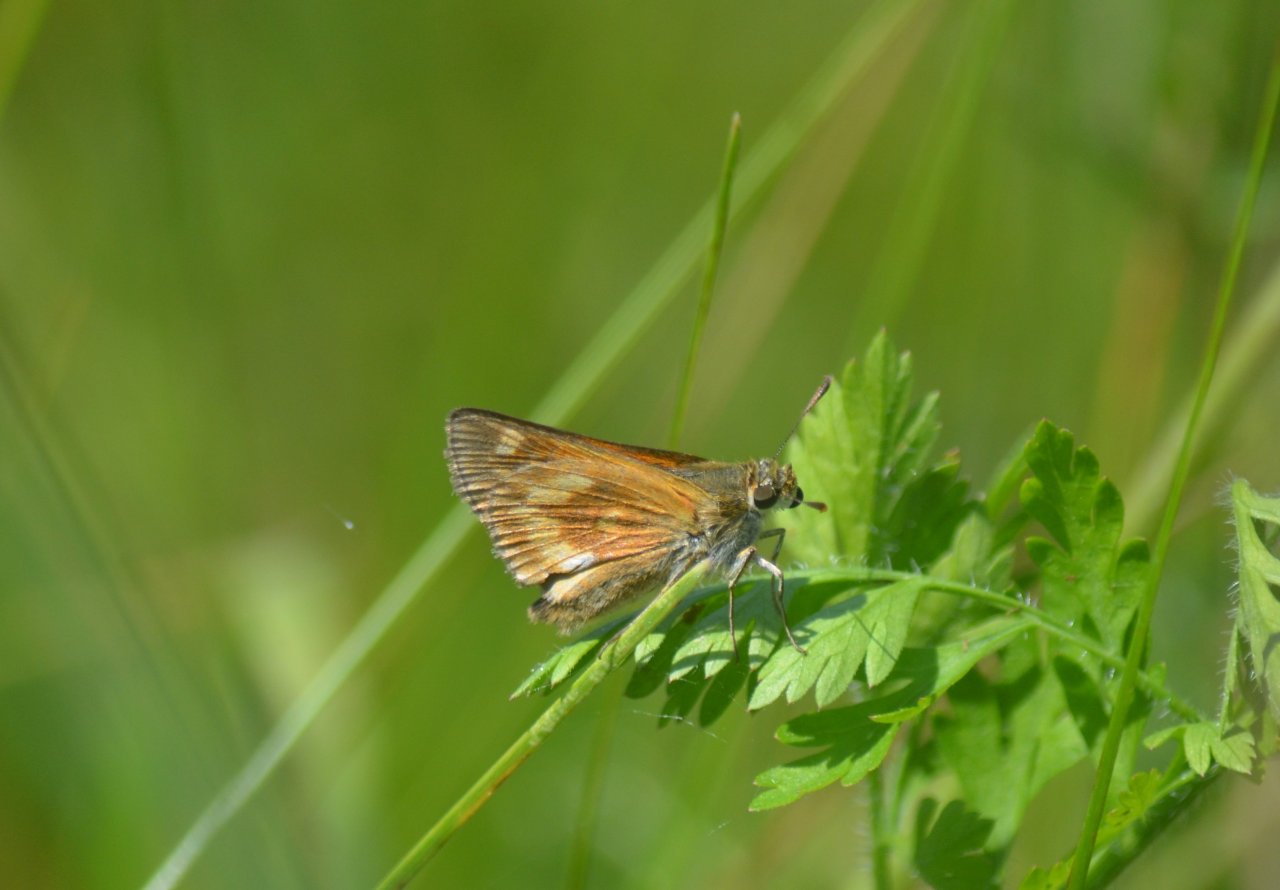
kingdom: Animalia
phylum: Arthropoda
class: Insecta
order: Lepidoptera
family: Hesperiidae
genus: Polites
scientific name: Polites
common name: Long Dash Skipper
